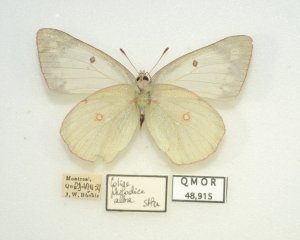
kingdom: Animalia
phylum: Arthropoda
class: Insecta
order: Lepidoptera
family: Pieridae
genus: Colias
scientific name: Colias philodice
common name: Clouded Sulphur
